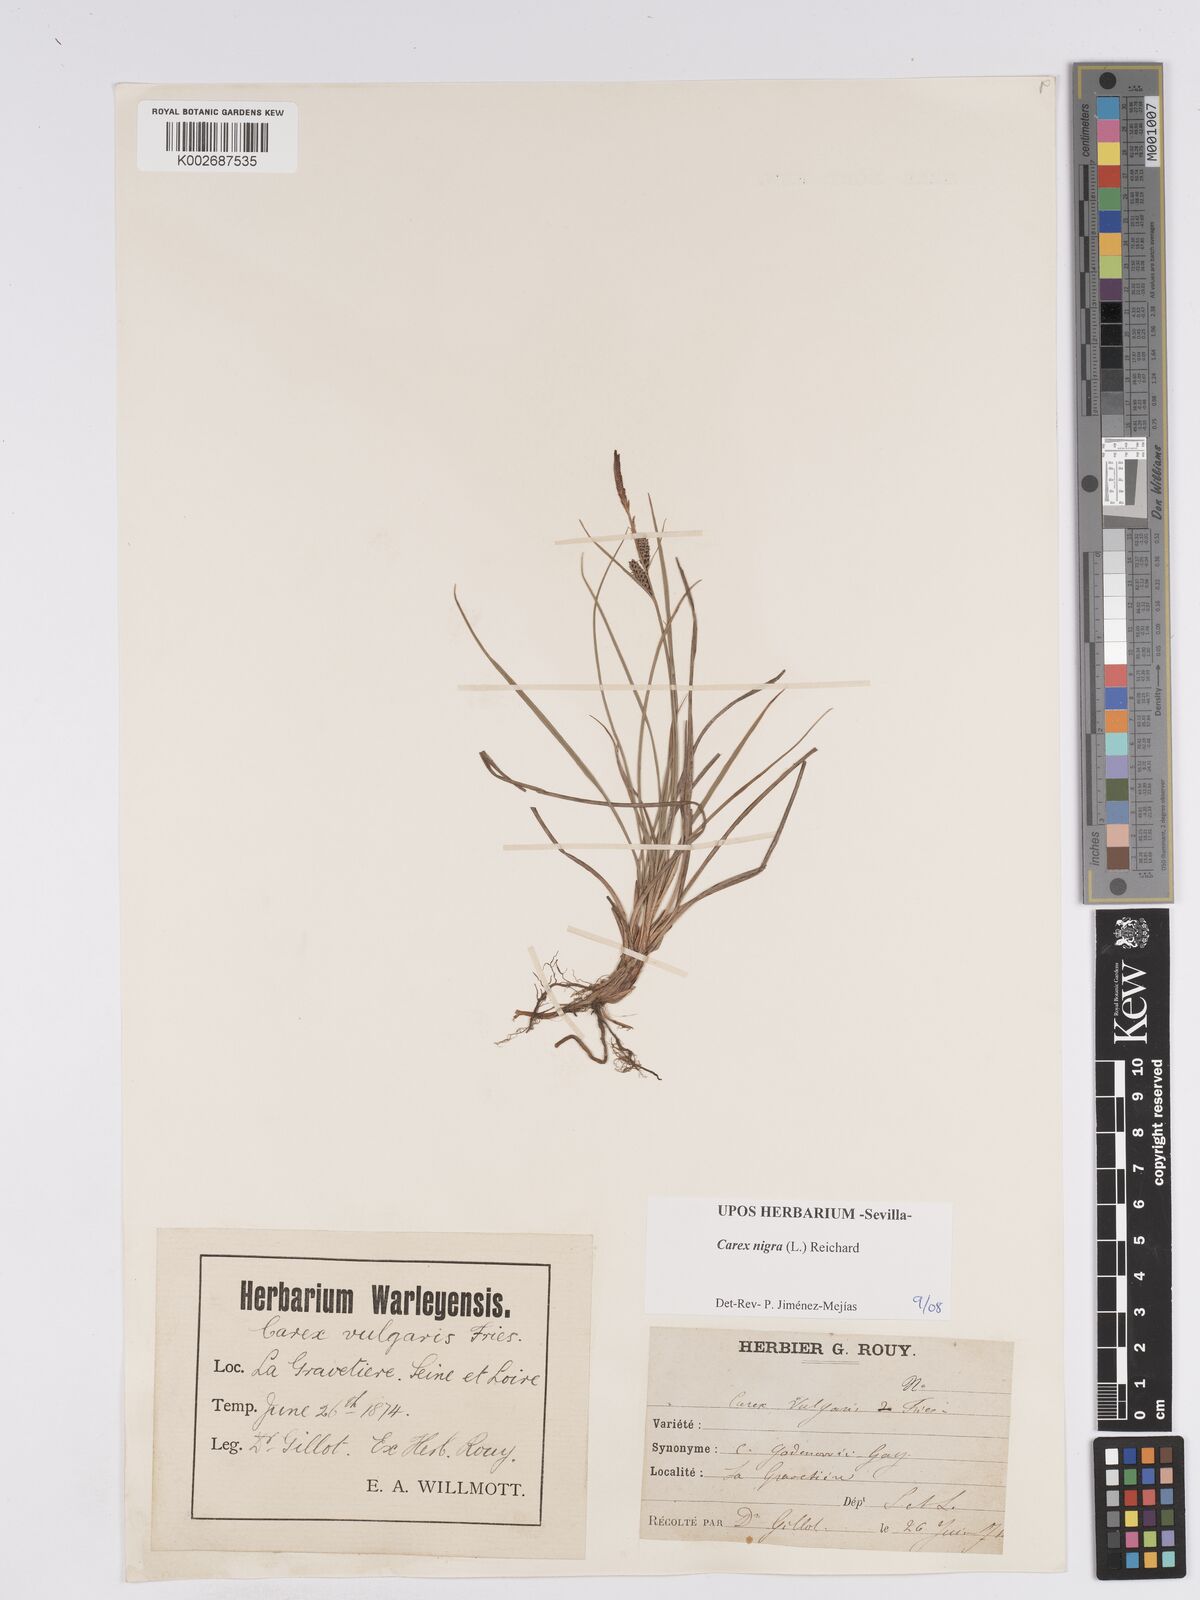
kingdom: Plantae
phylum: Tracheophyta
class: Liliopsida
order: Poales
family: Cyperaceae
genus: Carex
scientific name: Carex nigra
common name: Common sedge
